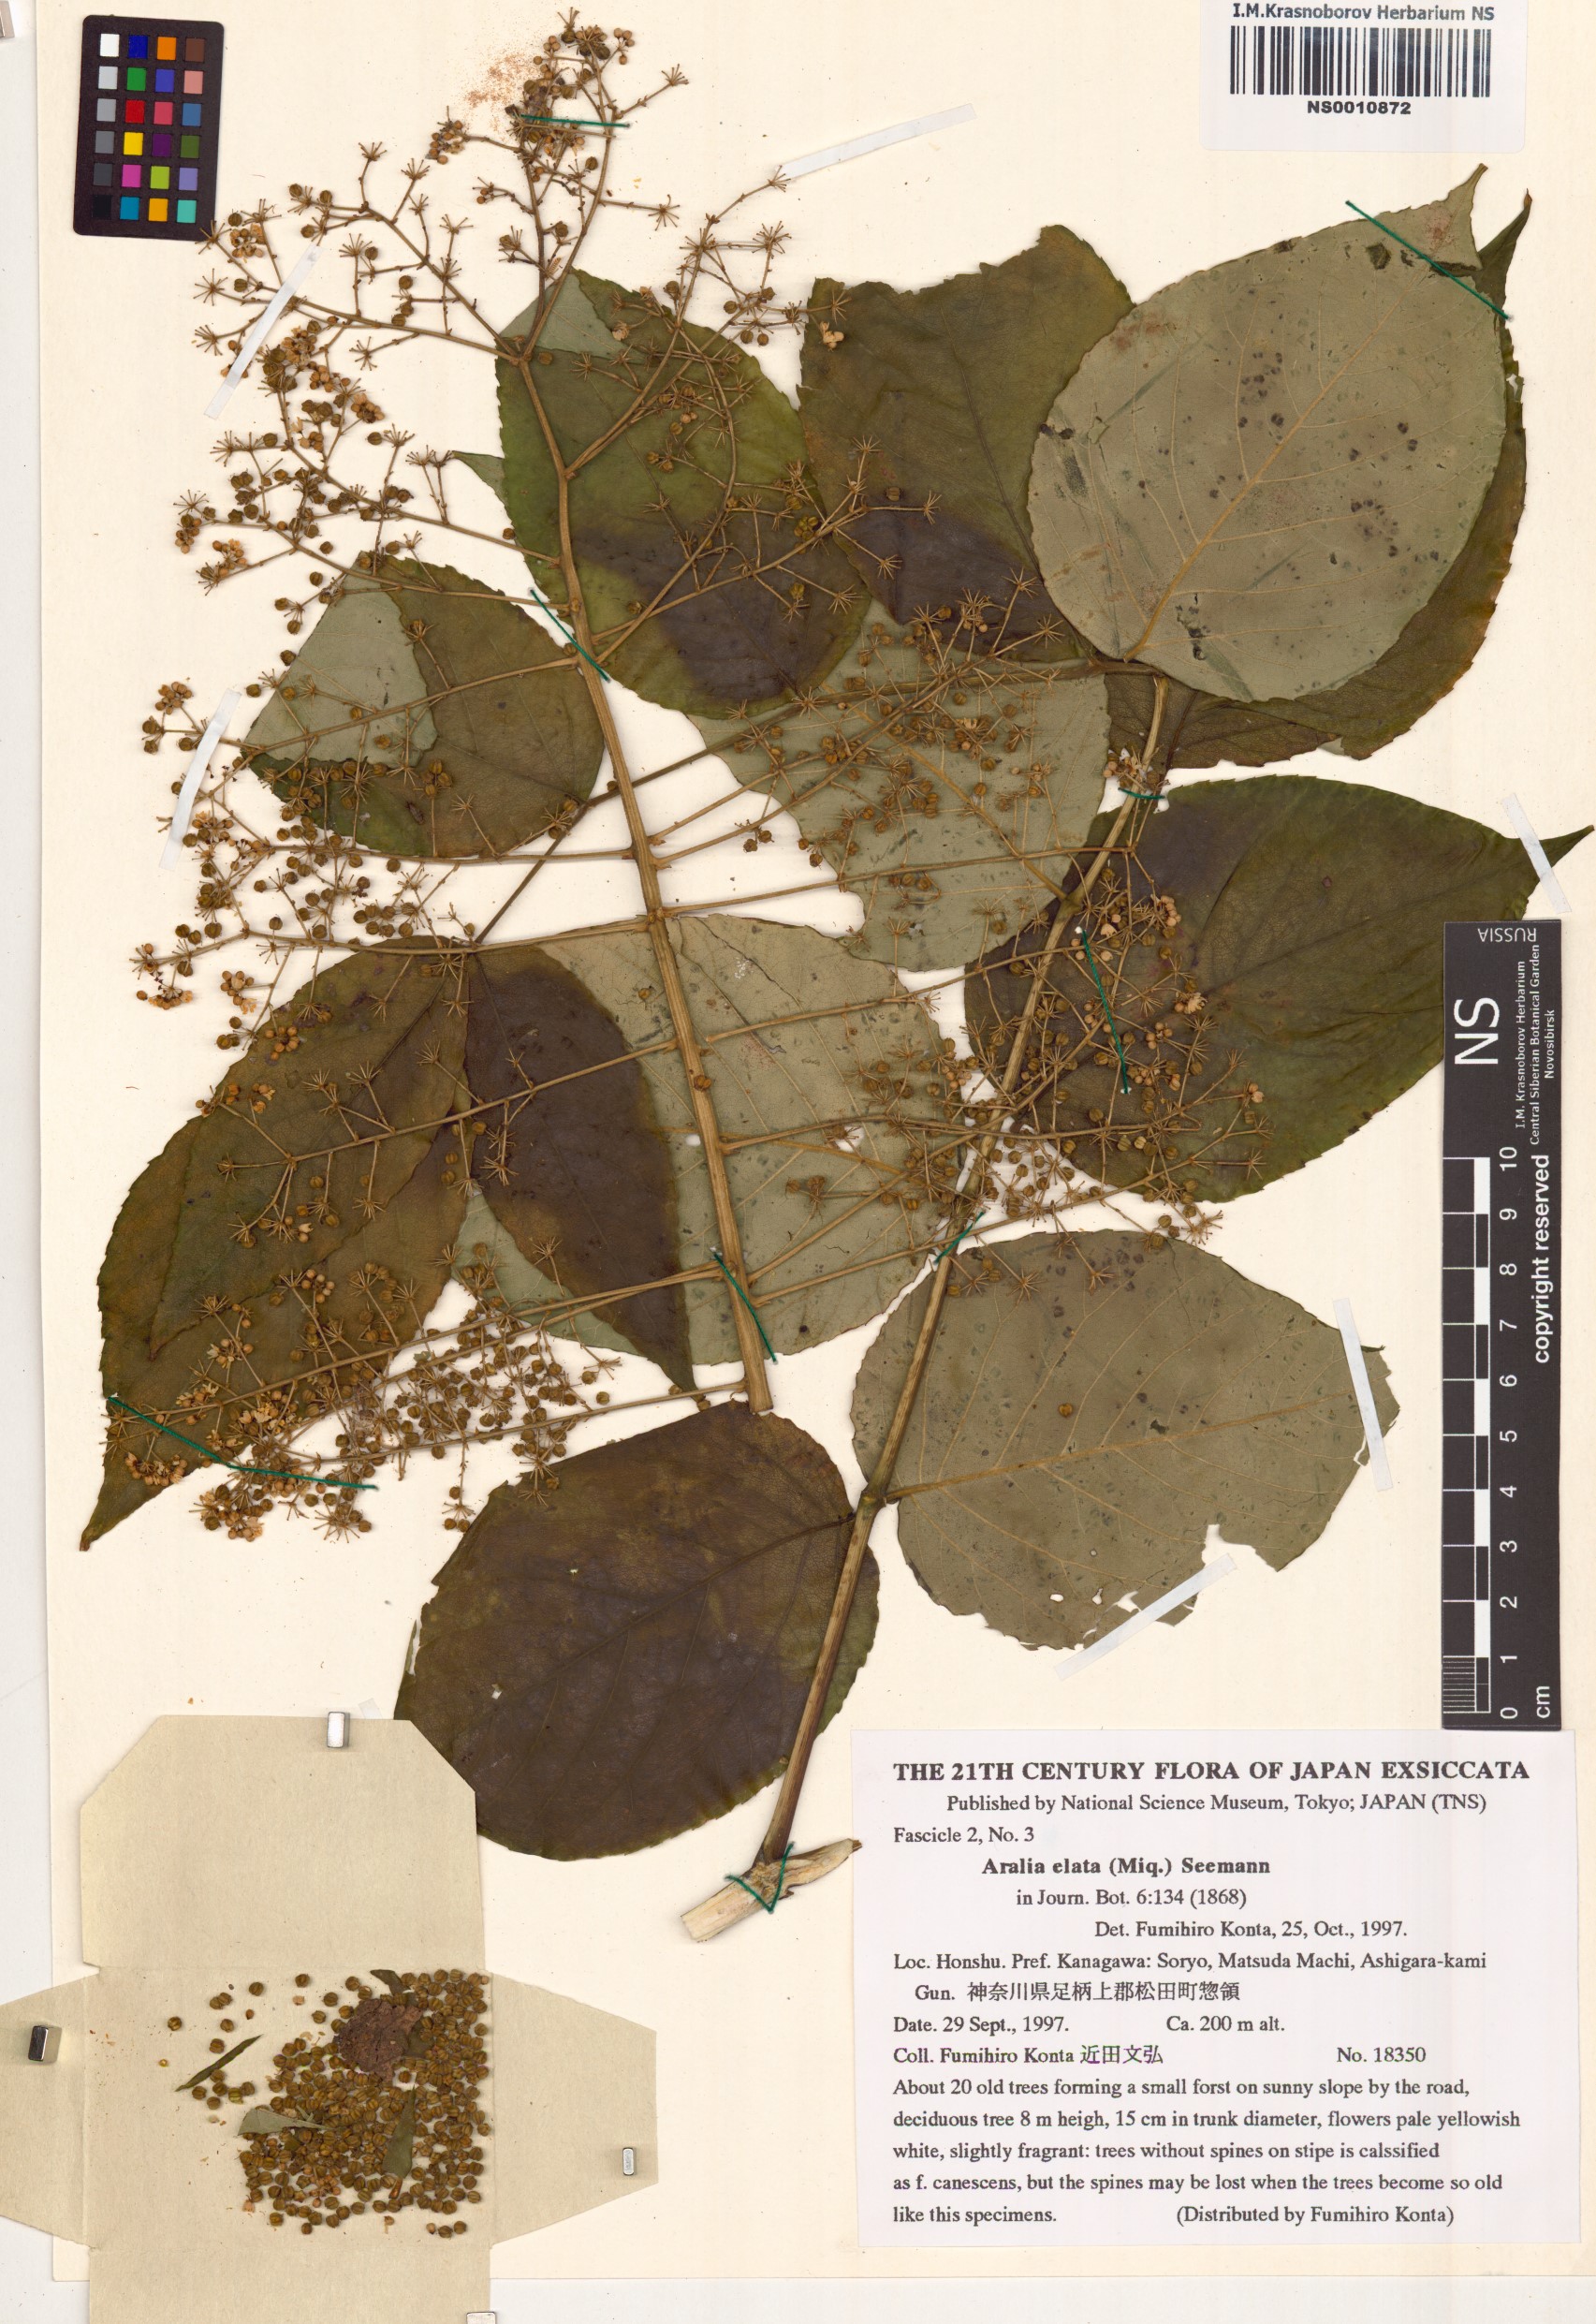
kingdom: Plantae
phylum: Tracheophyta
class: Magnoliopsida
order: Apiales
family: Araliaceae
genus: Aralia
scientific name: Aralia elata
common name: Japanese angelica-tree
